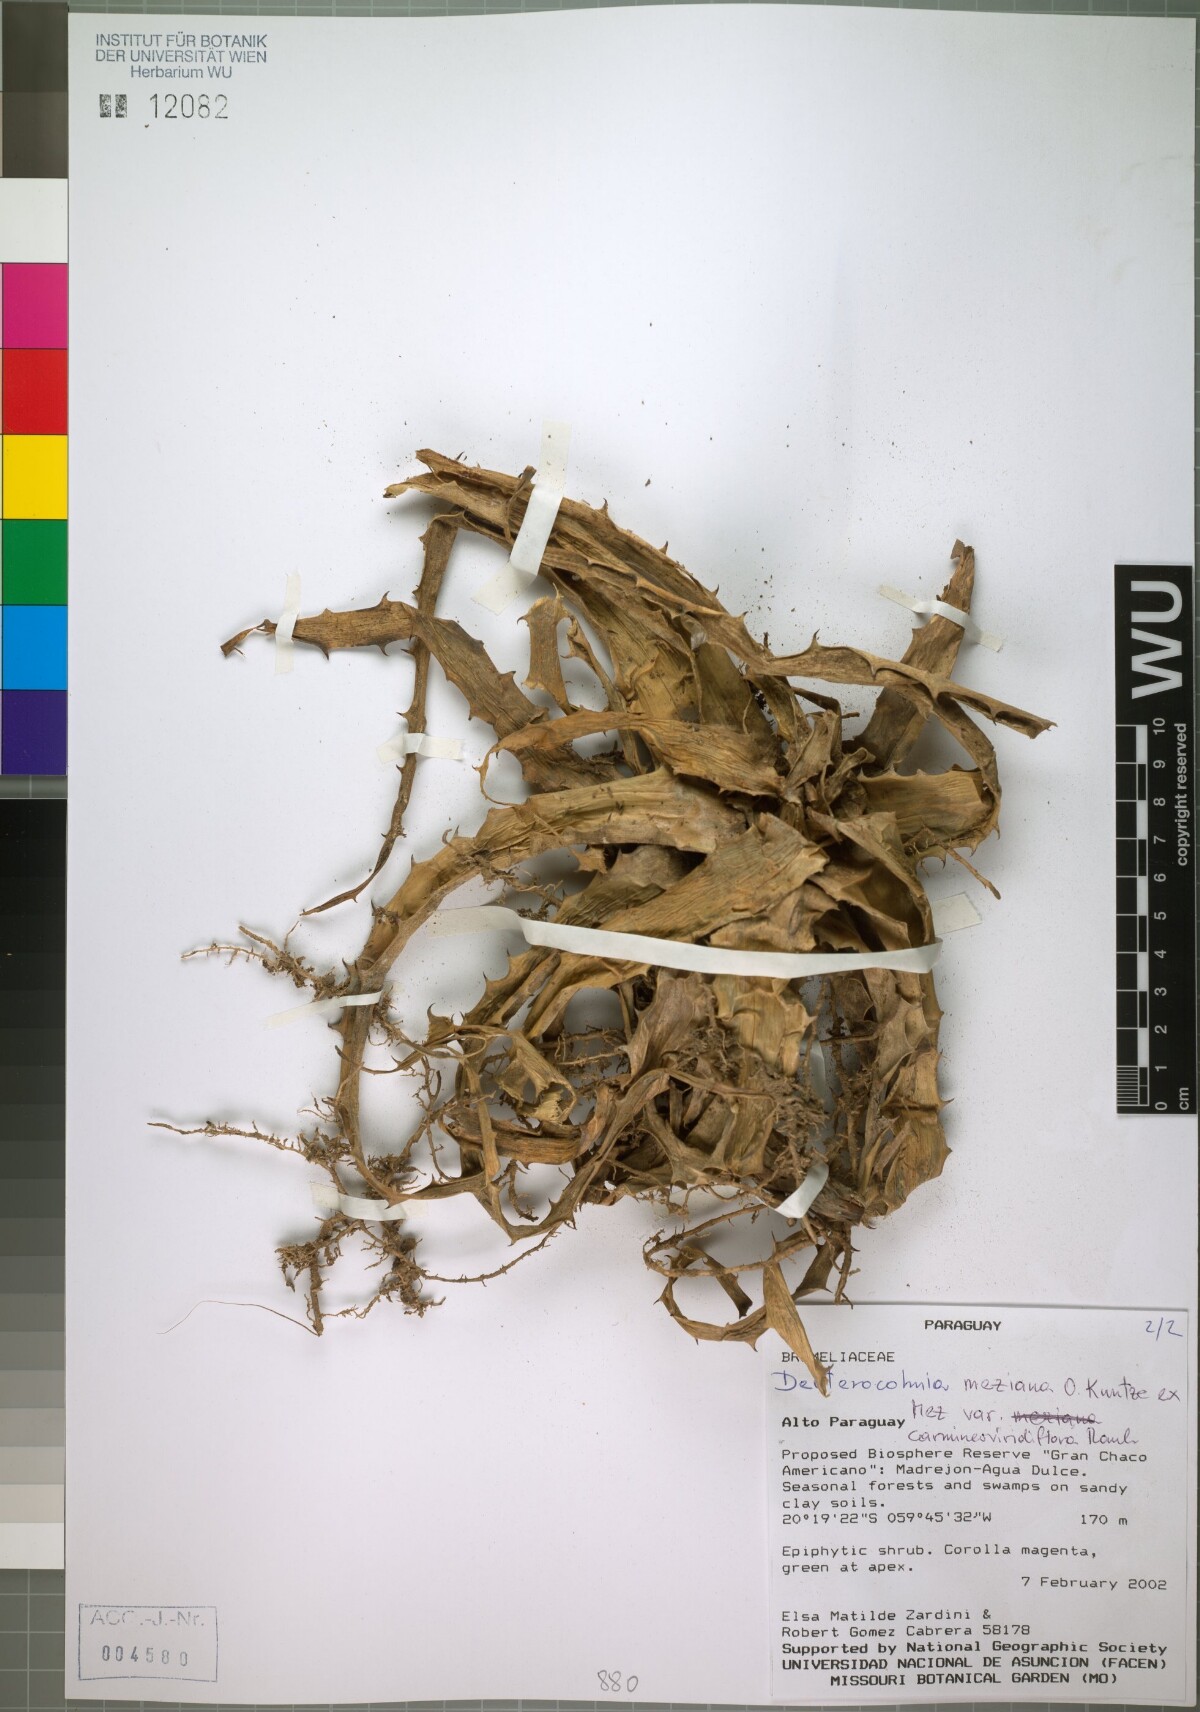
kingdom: Plantae
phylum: Tracheophyta
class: Liliopsida
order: Poales
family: Bromeliaceae
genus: Deuterocohnia
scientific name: Deuterocohnia meziana
